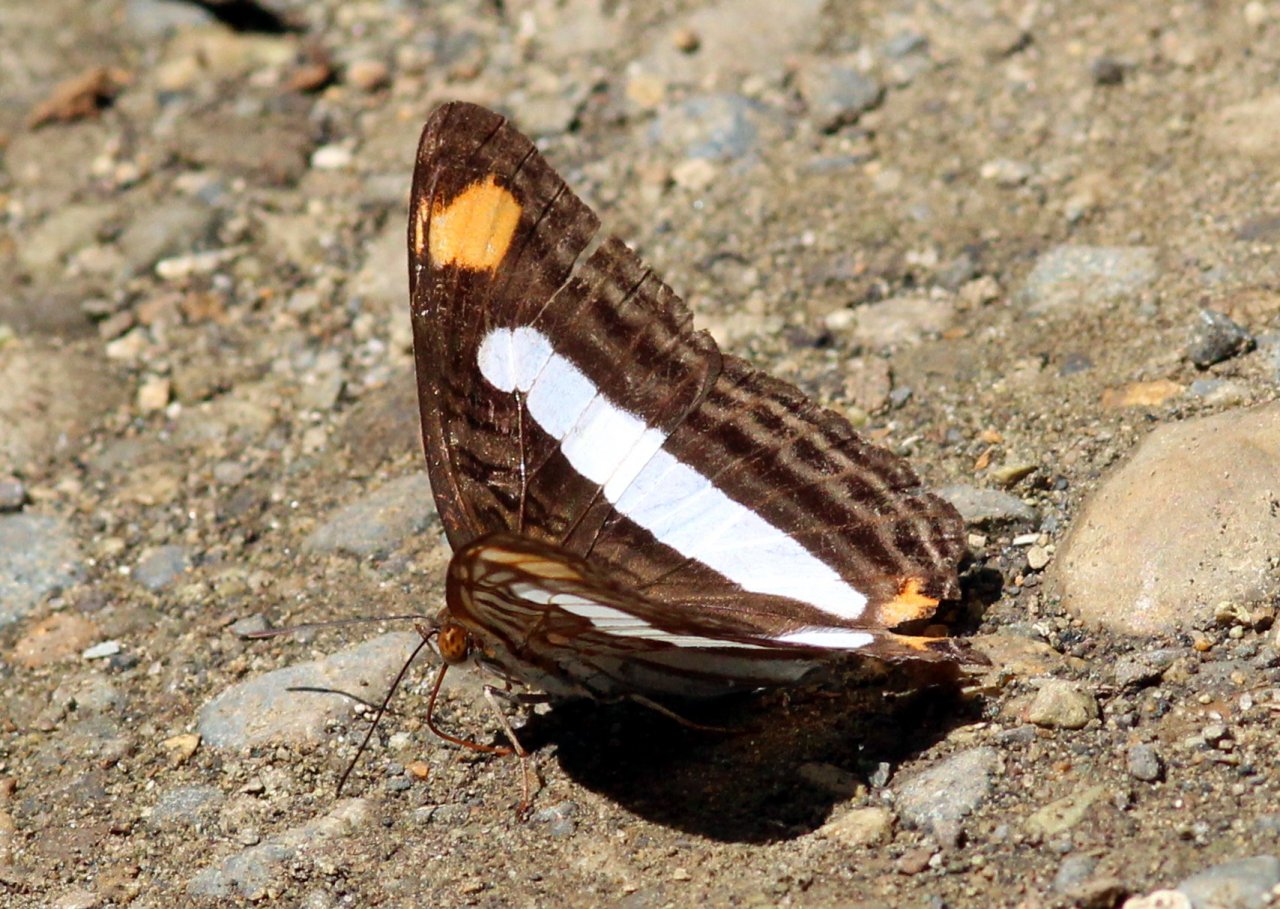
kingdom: Animalia
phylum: Arthropoda
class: Insecta
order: Lepidoptera
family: Nymphalidae
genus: Limenitis
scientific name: Limenitis paraena
